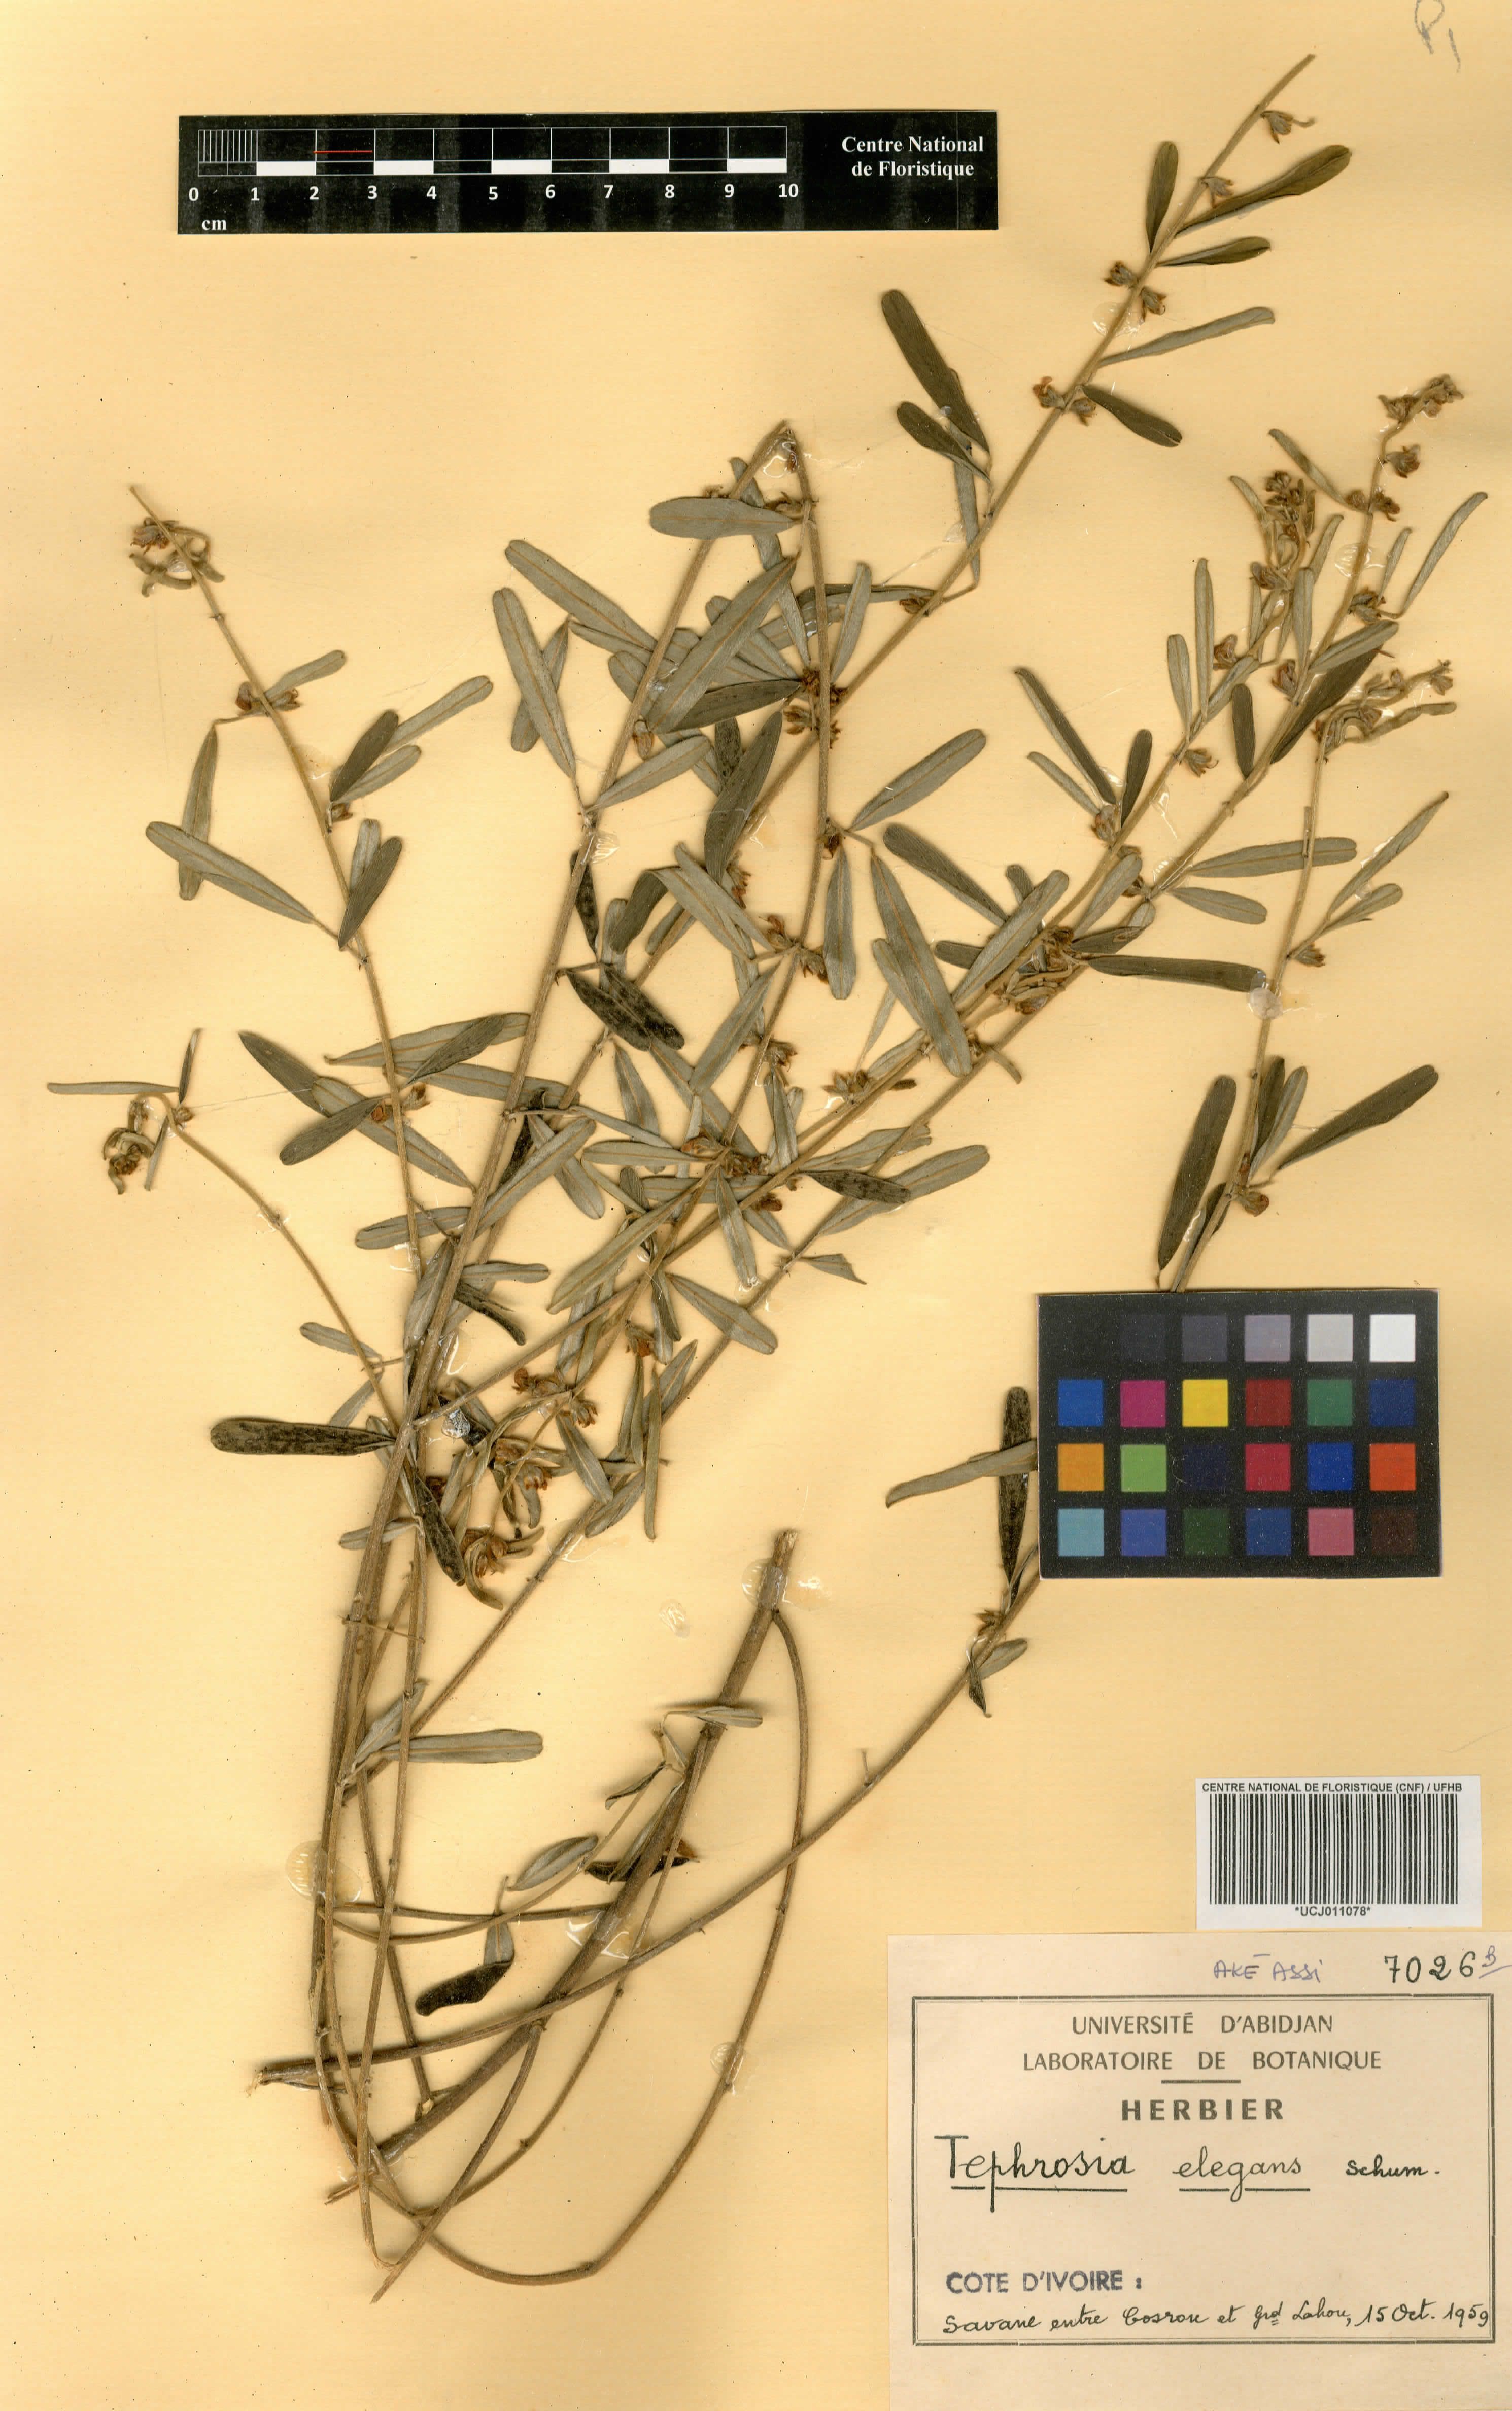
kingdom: Plantae
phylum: Tracheophyta
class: Magnoliopsida
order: Fabales
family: Fabaceae
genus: Tephrosia
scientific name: Tephrosia elegans
